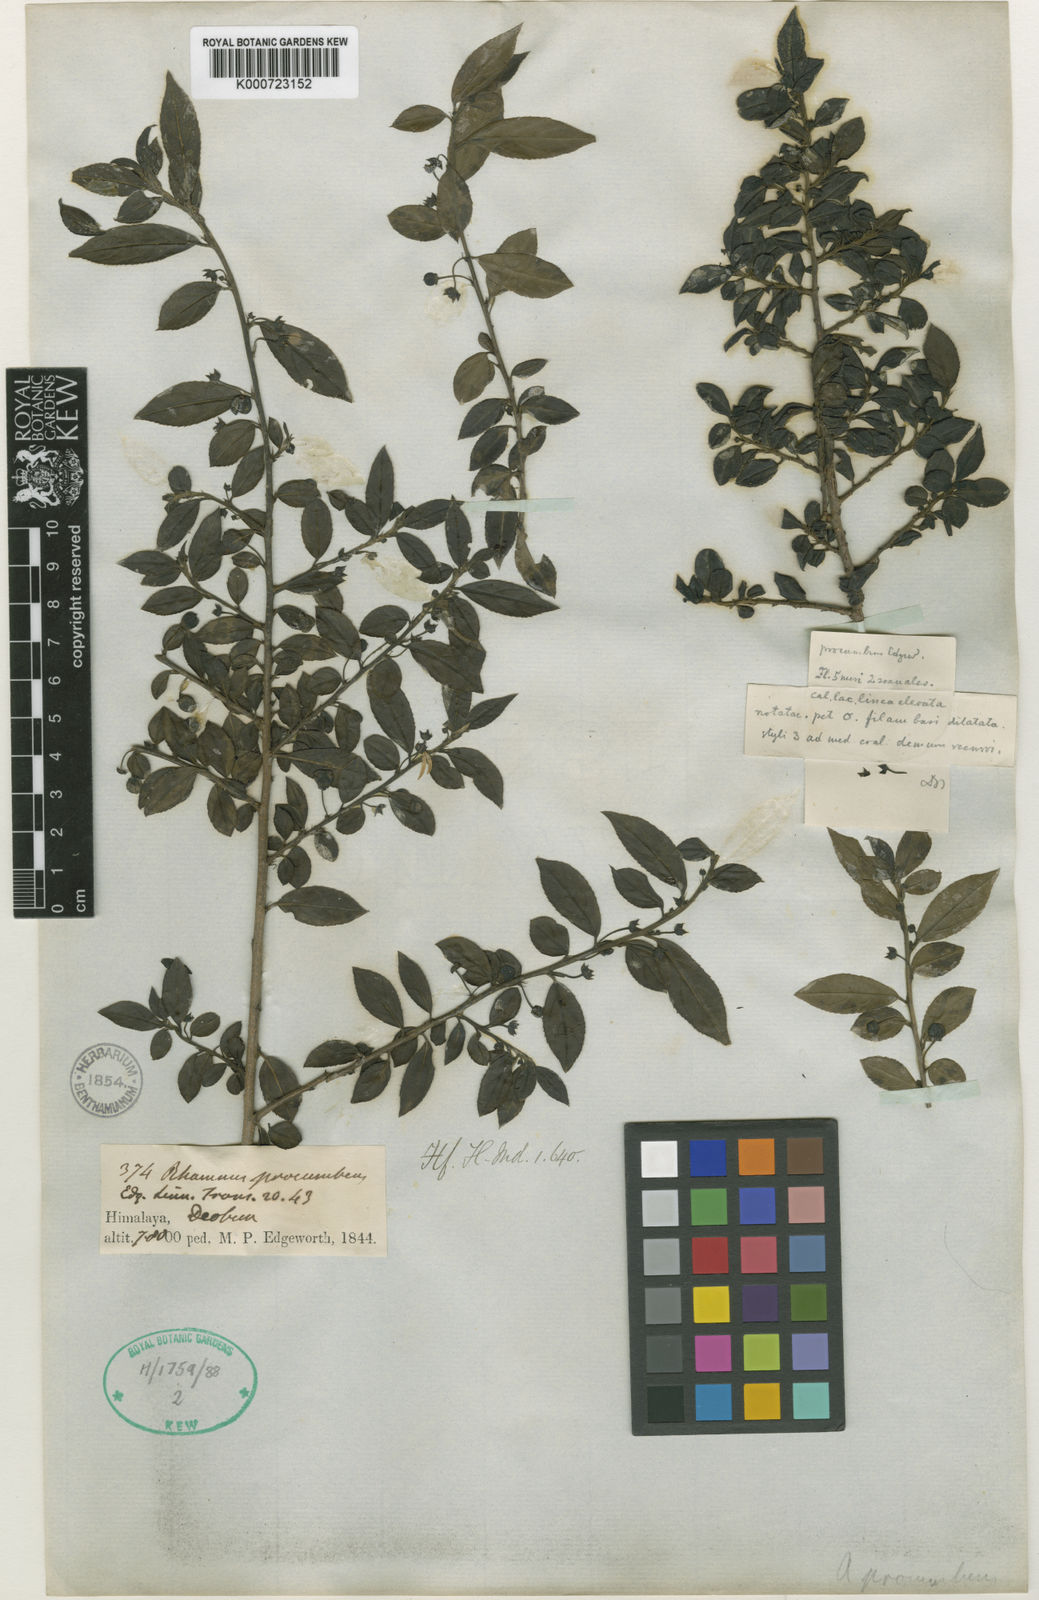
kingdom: Plantae
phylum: Tracheophyta
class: Magnoliopsida
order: Rosales
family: Rhamnaceae
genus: Rhamnus
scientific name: Rhamnus procumbens
